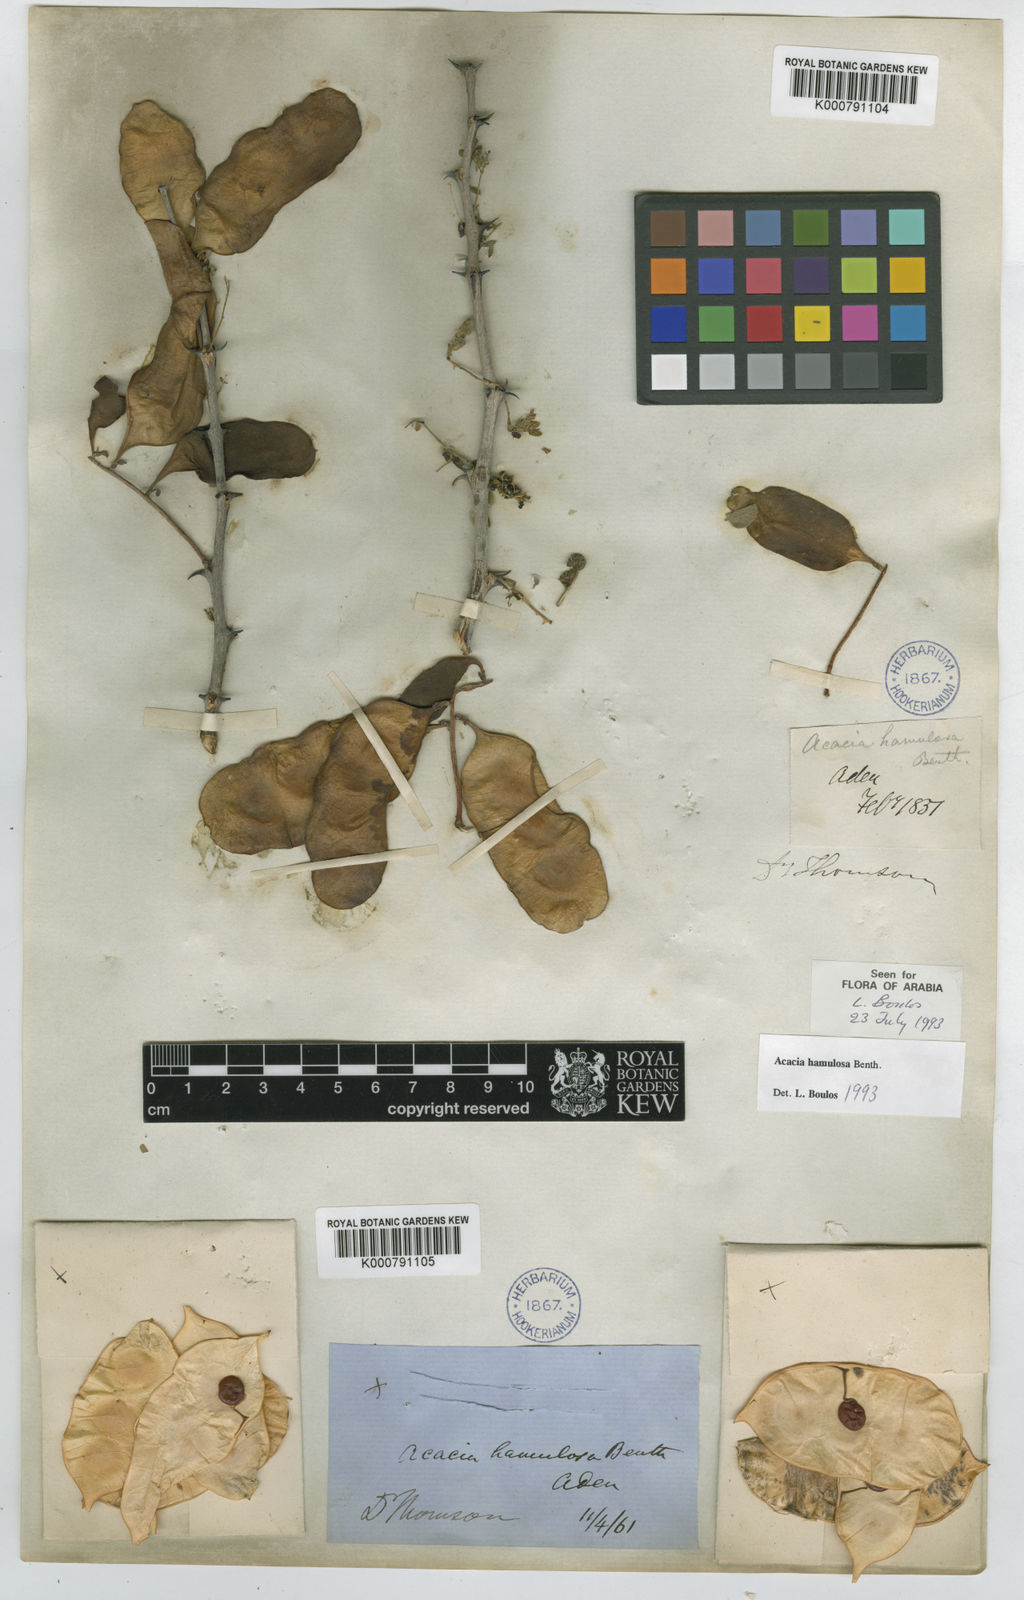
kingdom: Plantae
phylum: Tracheophyta
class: Magnoliopsida
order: Fabales
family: Fabaceae
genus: Senegalia
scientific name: Senegalia hamulosa
